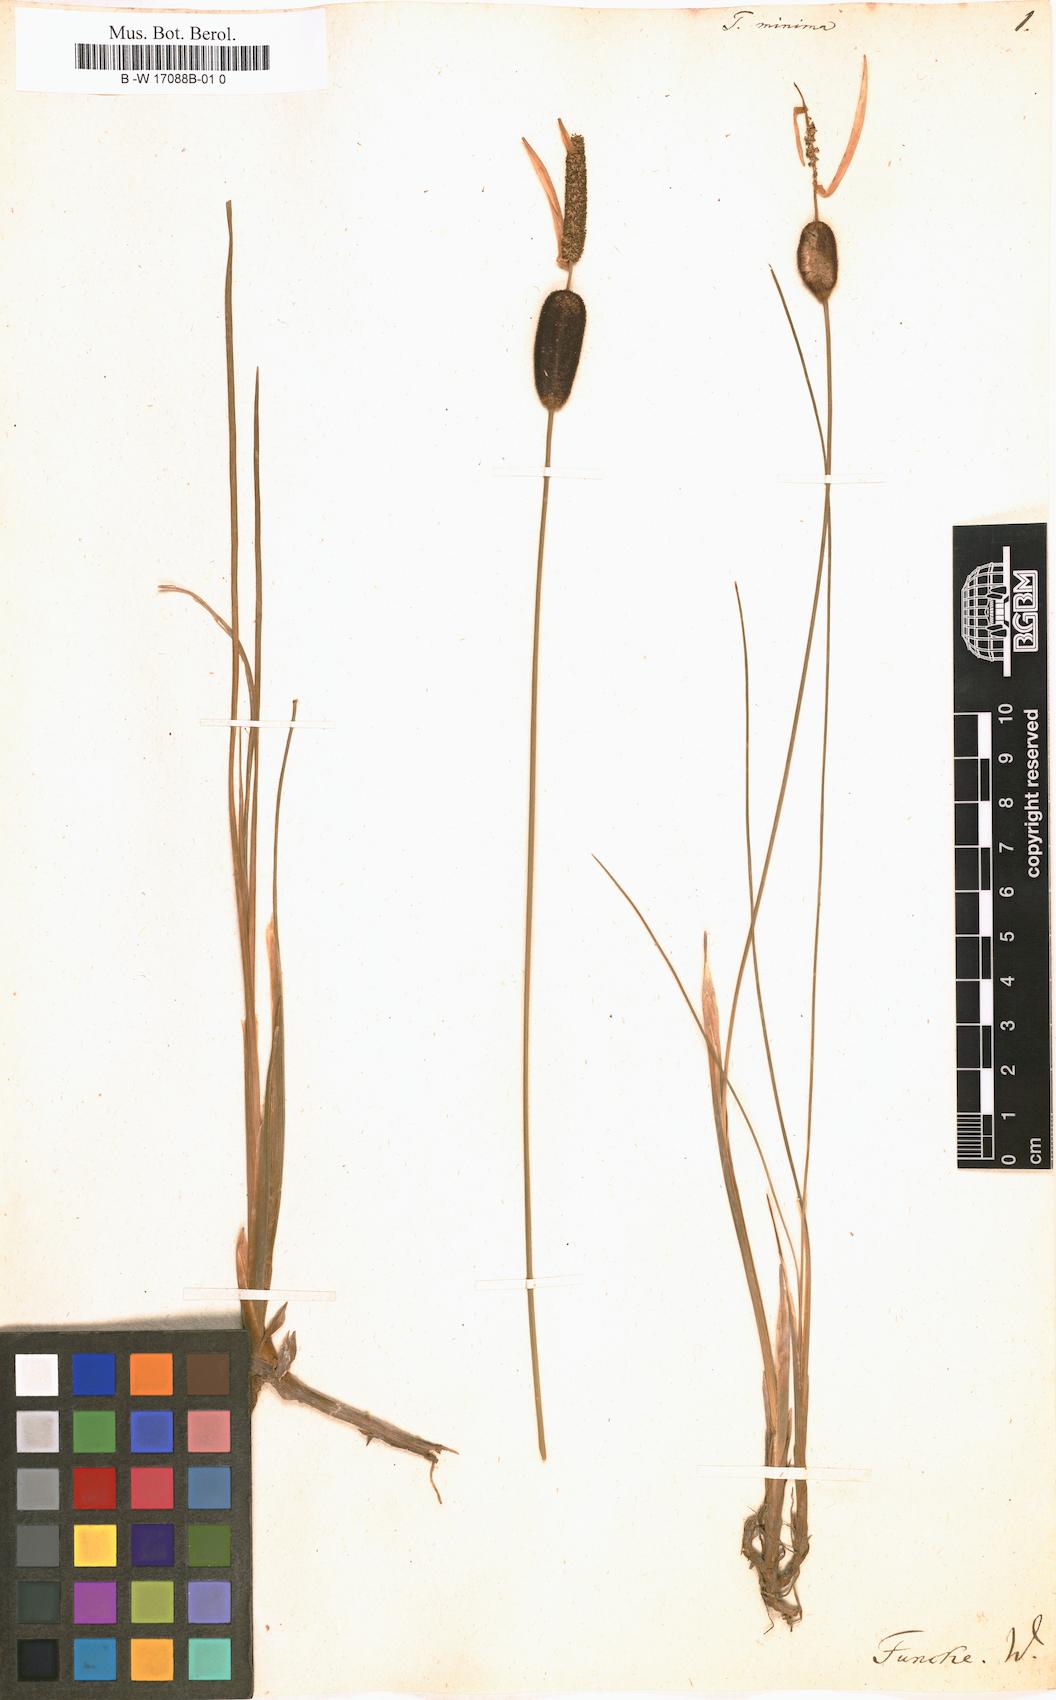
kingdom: Plantae
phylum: Tracheophyta
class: Liliopsida
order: Poales
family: Typhaceae
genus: Typha
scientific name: Typha minima
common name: Dwarf bulrush
